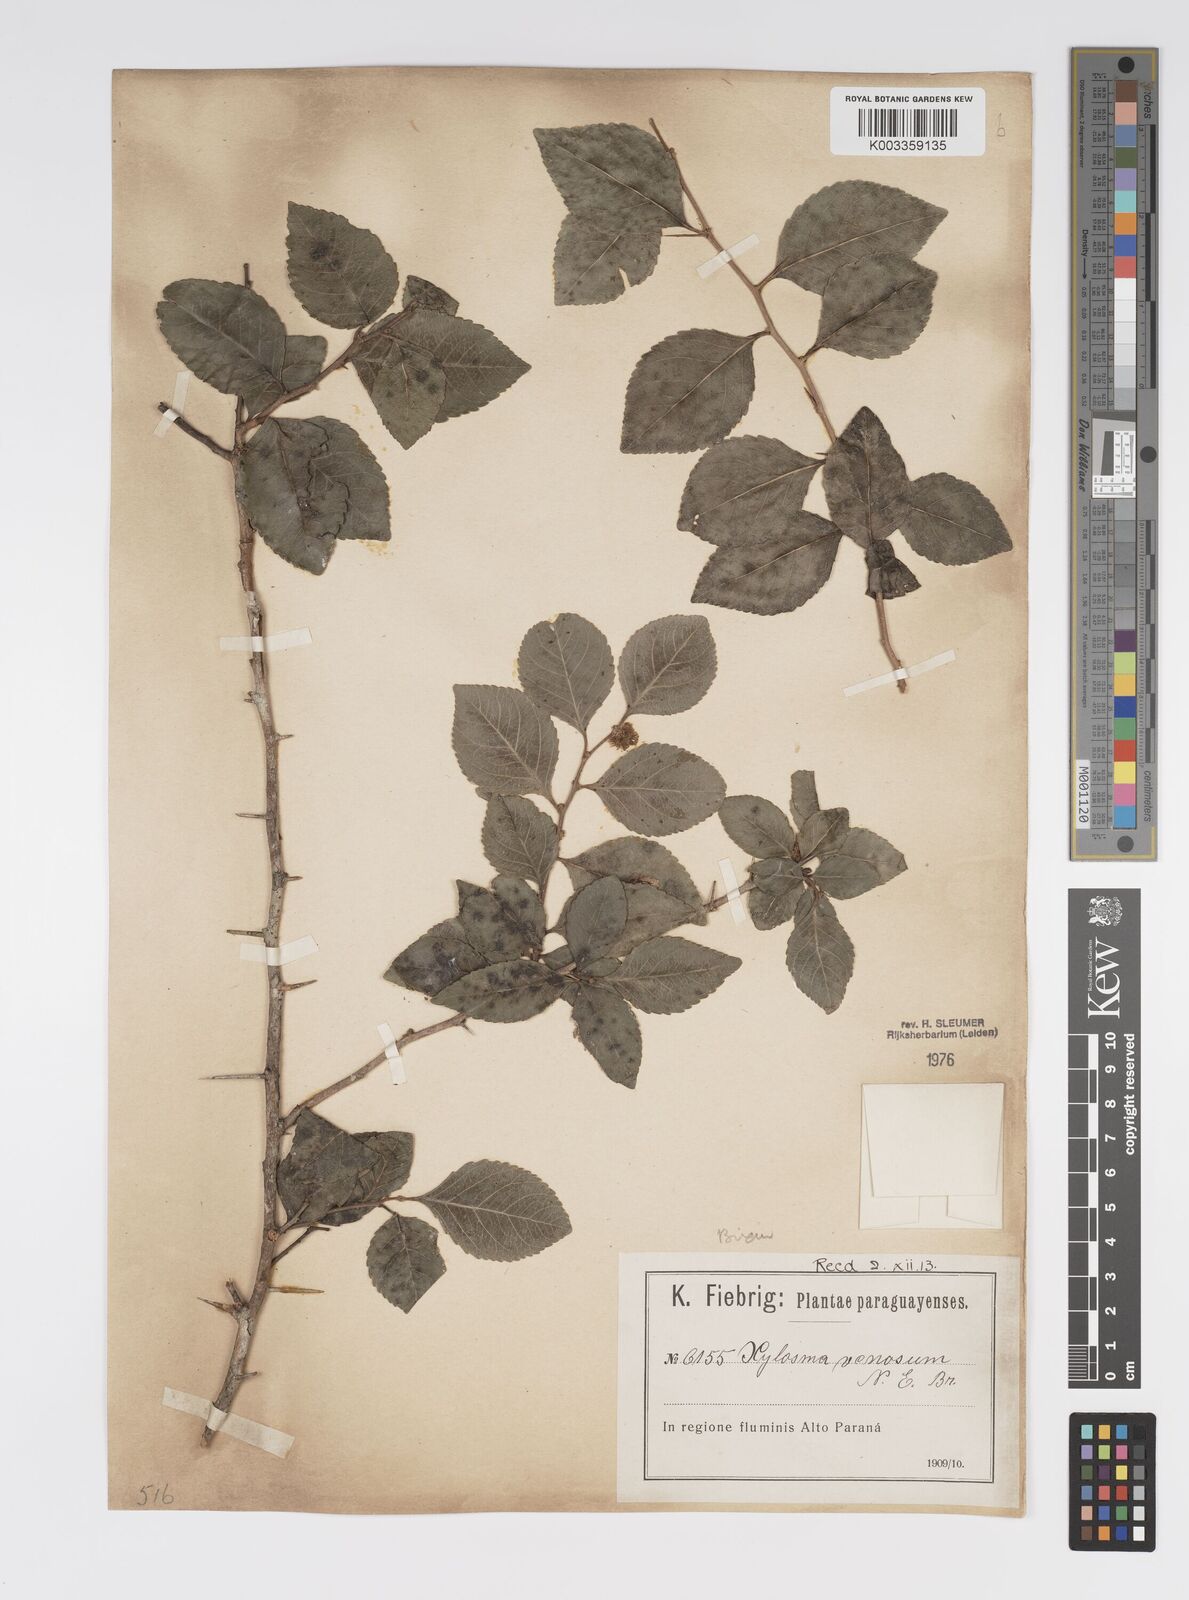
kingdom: Plantae
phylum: Tracheophyta
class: Magnoliopsida
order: Malpighiales
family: Salicaceae
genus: Xylosma
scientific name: Xylosma venosa
